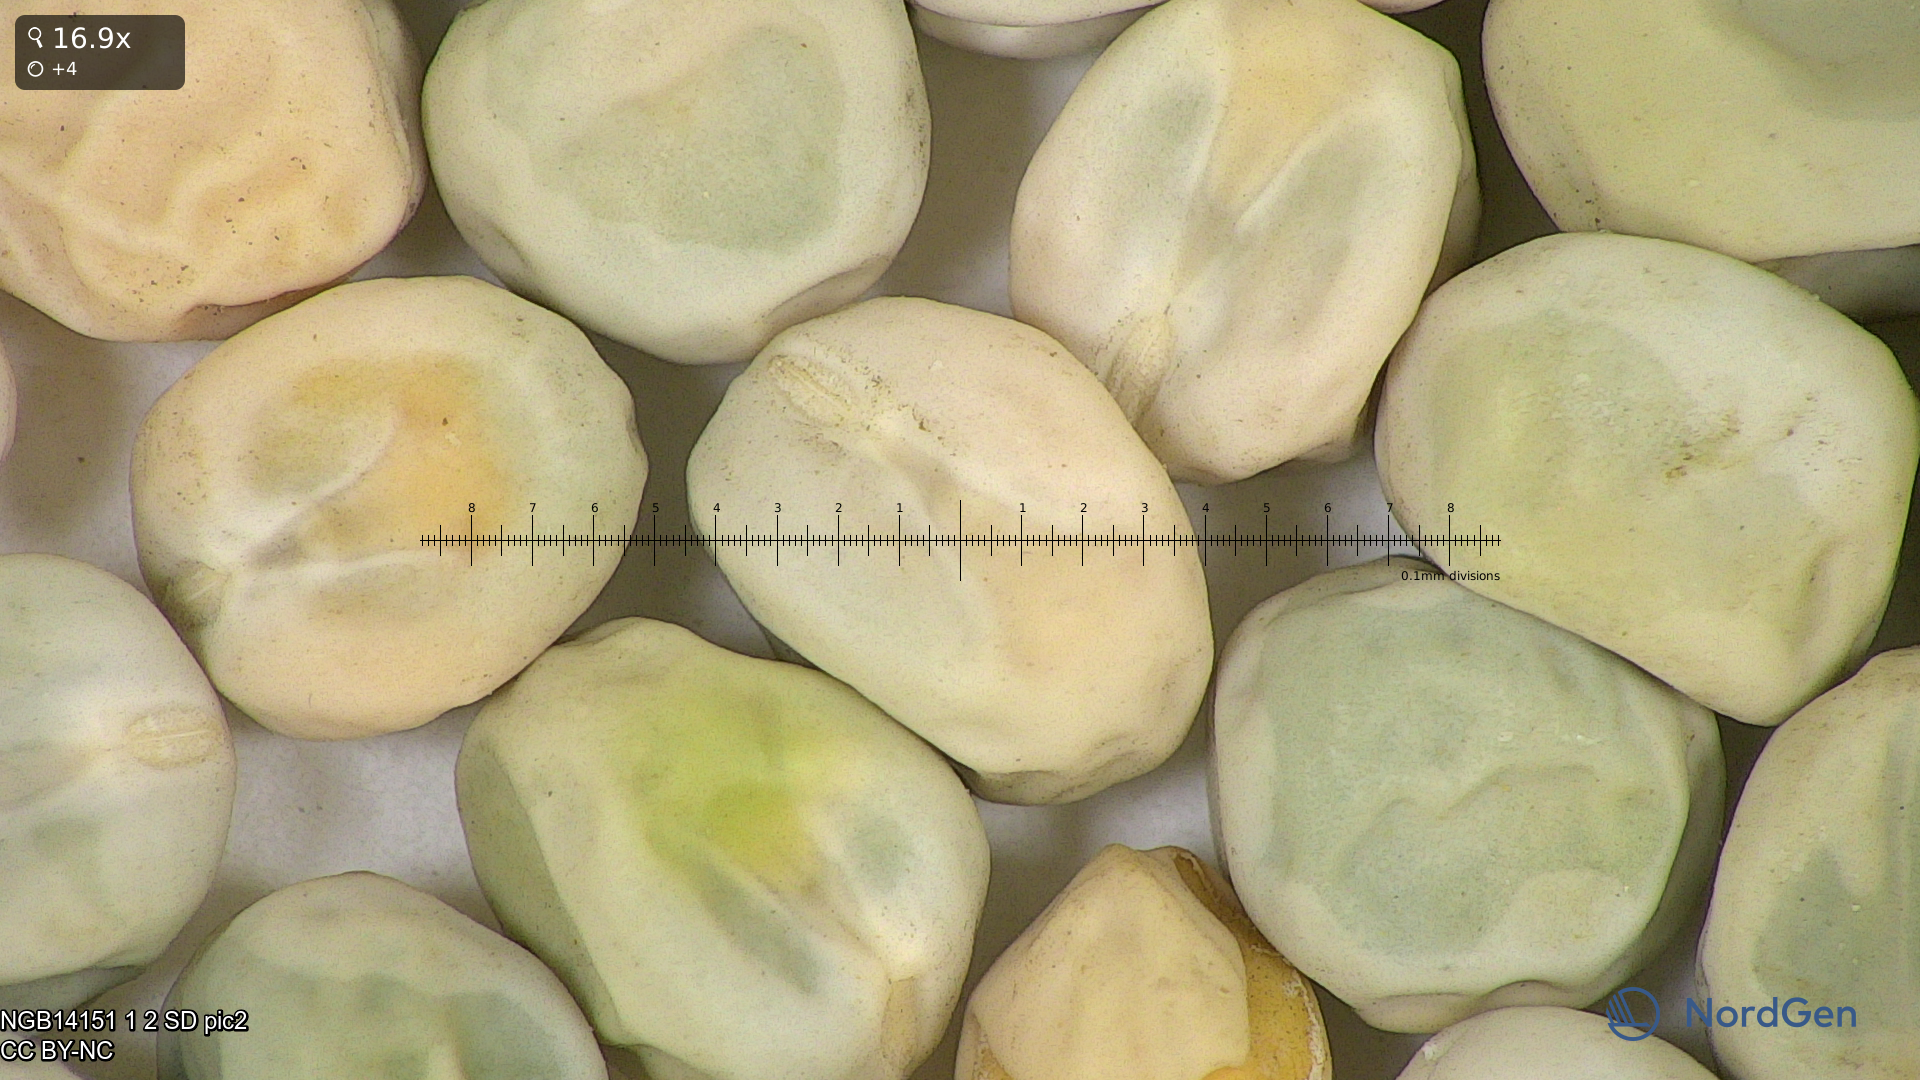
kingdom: Plantae
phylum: Tracheophyta
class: Magnoliopsida
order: Fabales
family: Fabaceae
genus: Lathyrus
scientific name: Lathyrus oleraceus
